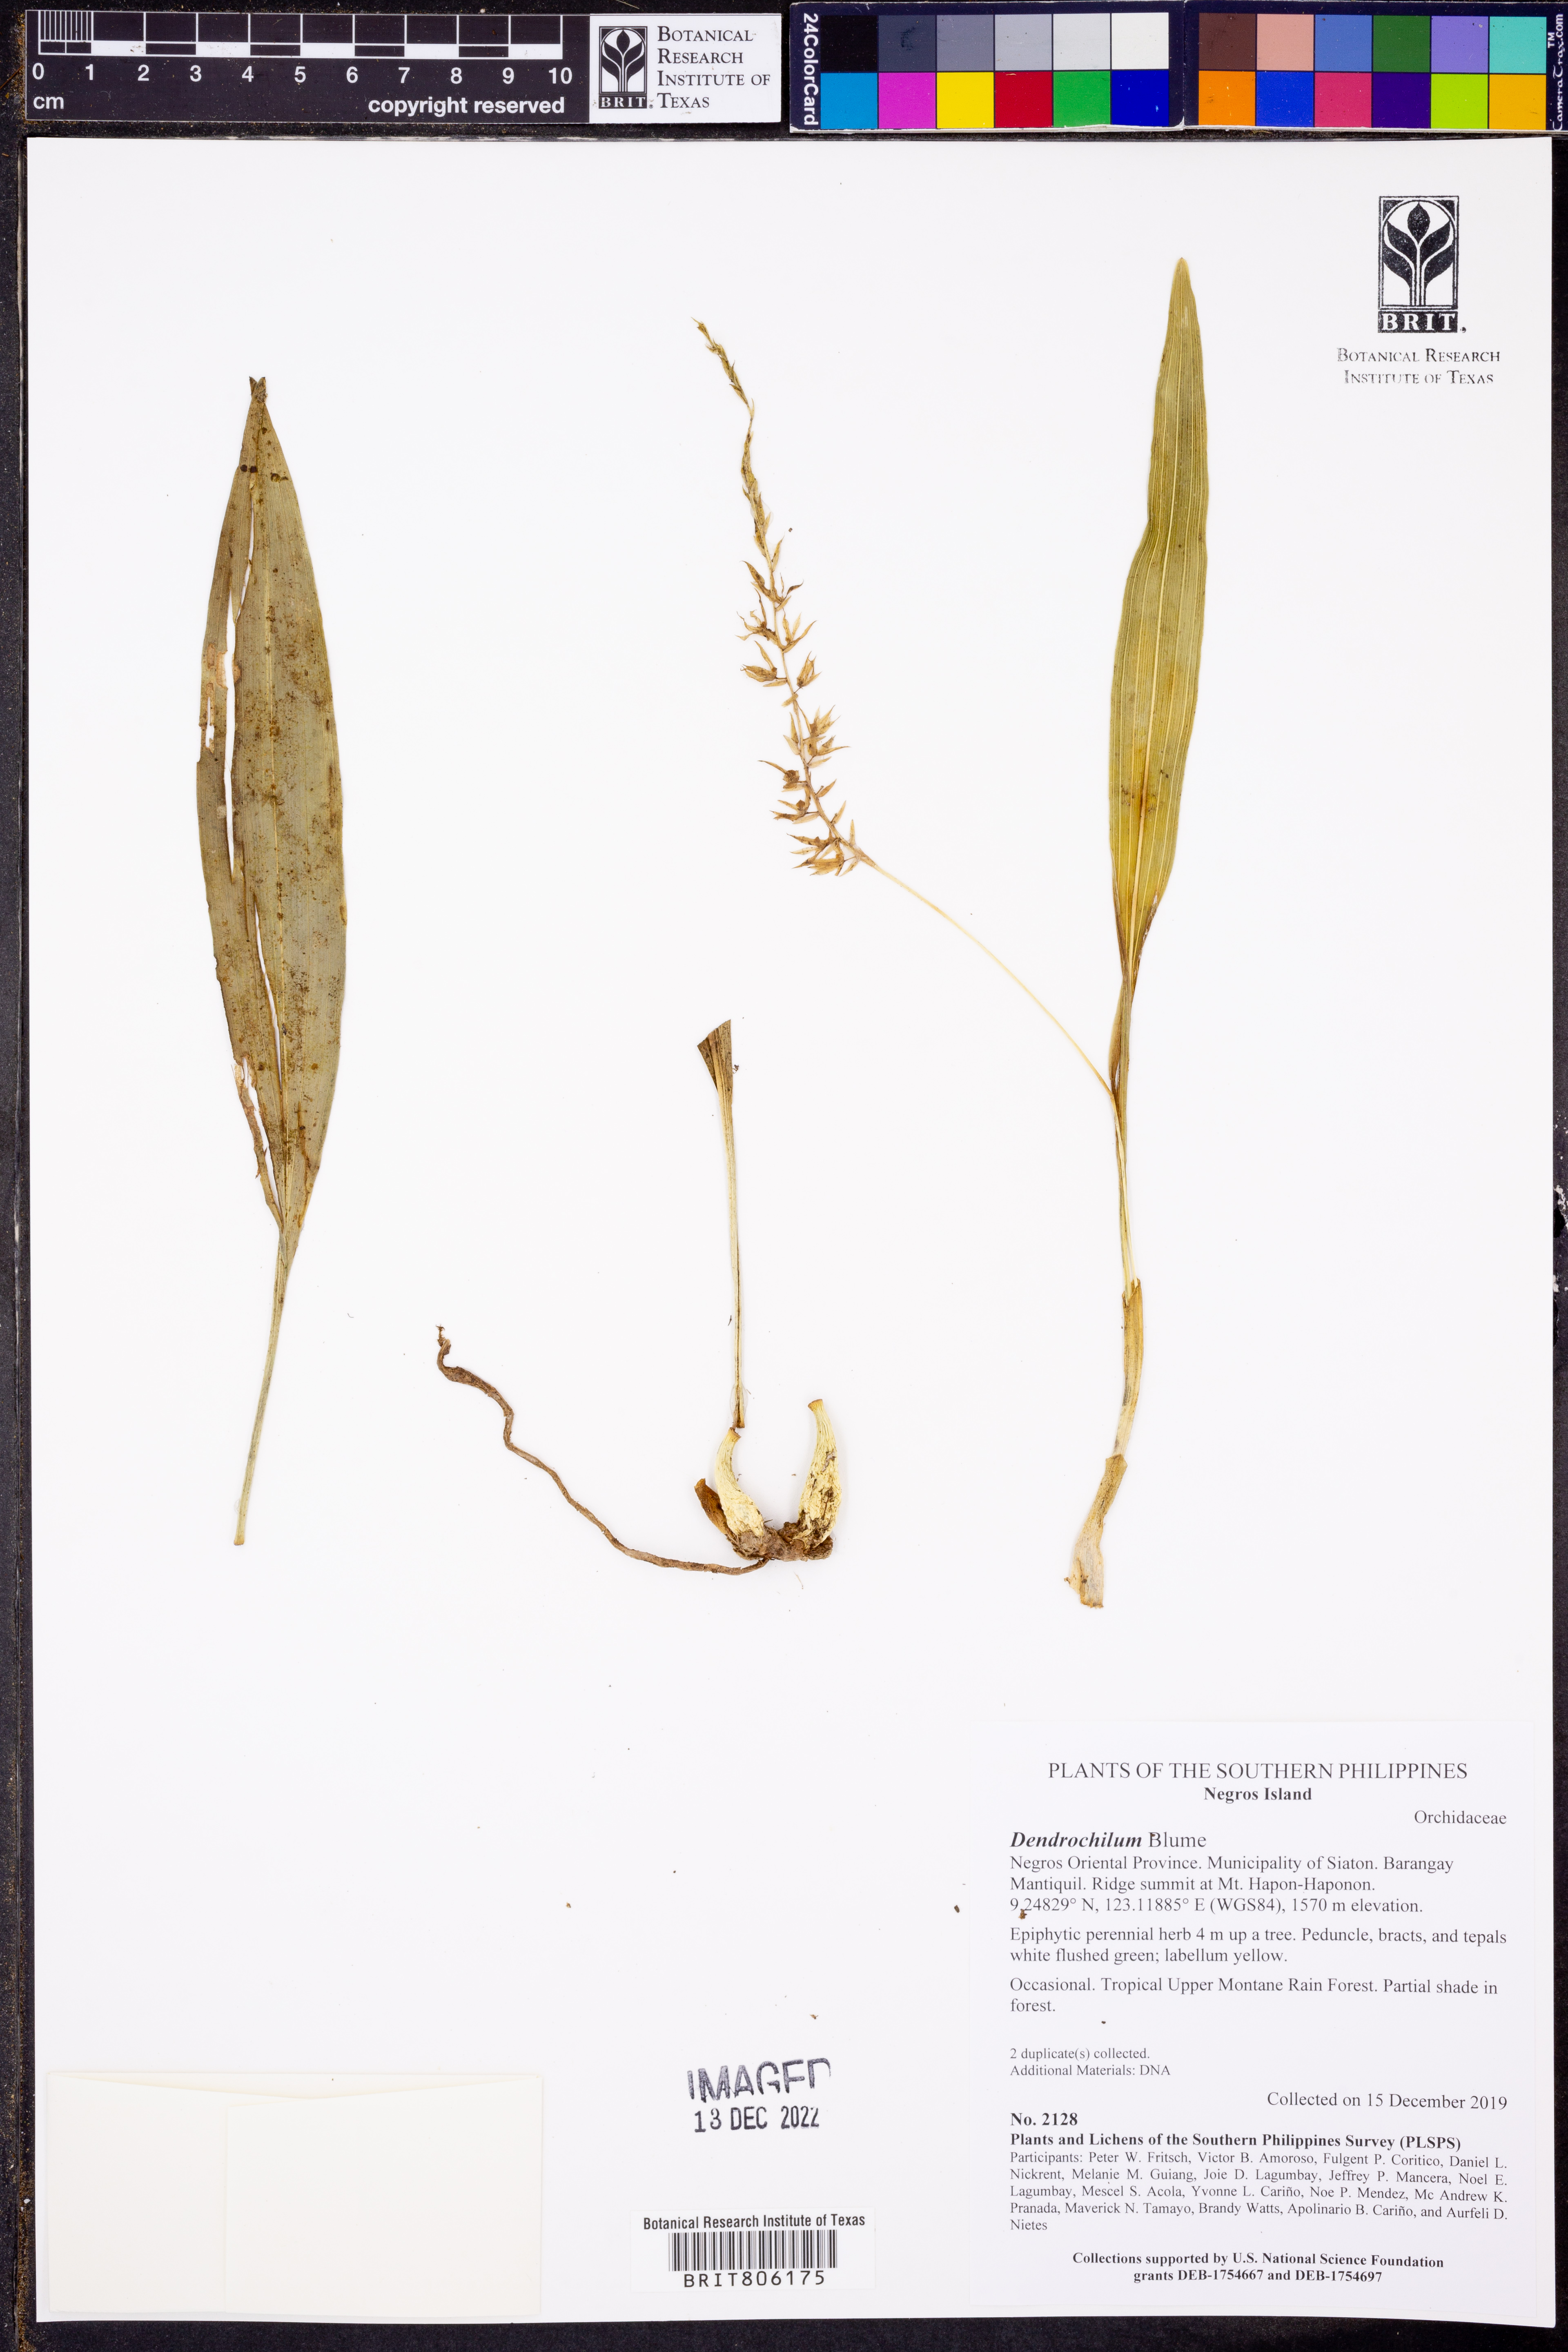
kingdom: Plantae
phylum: Tracheophyta
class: Liliopsida
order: Asparagales
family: Orchidaceae
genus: Coelogyne
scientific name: Coelogyne
